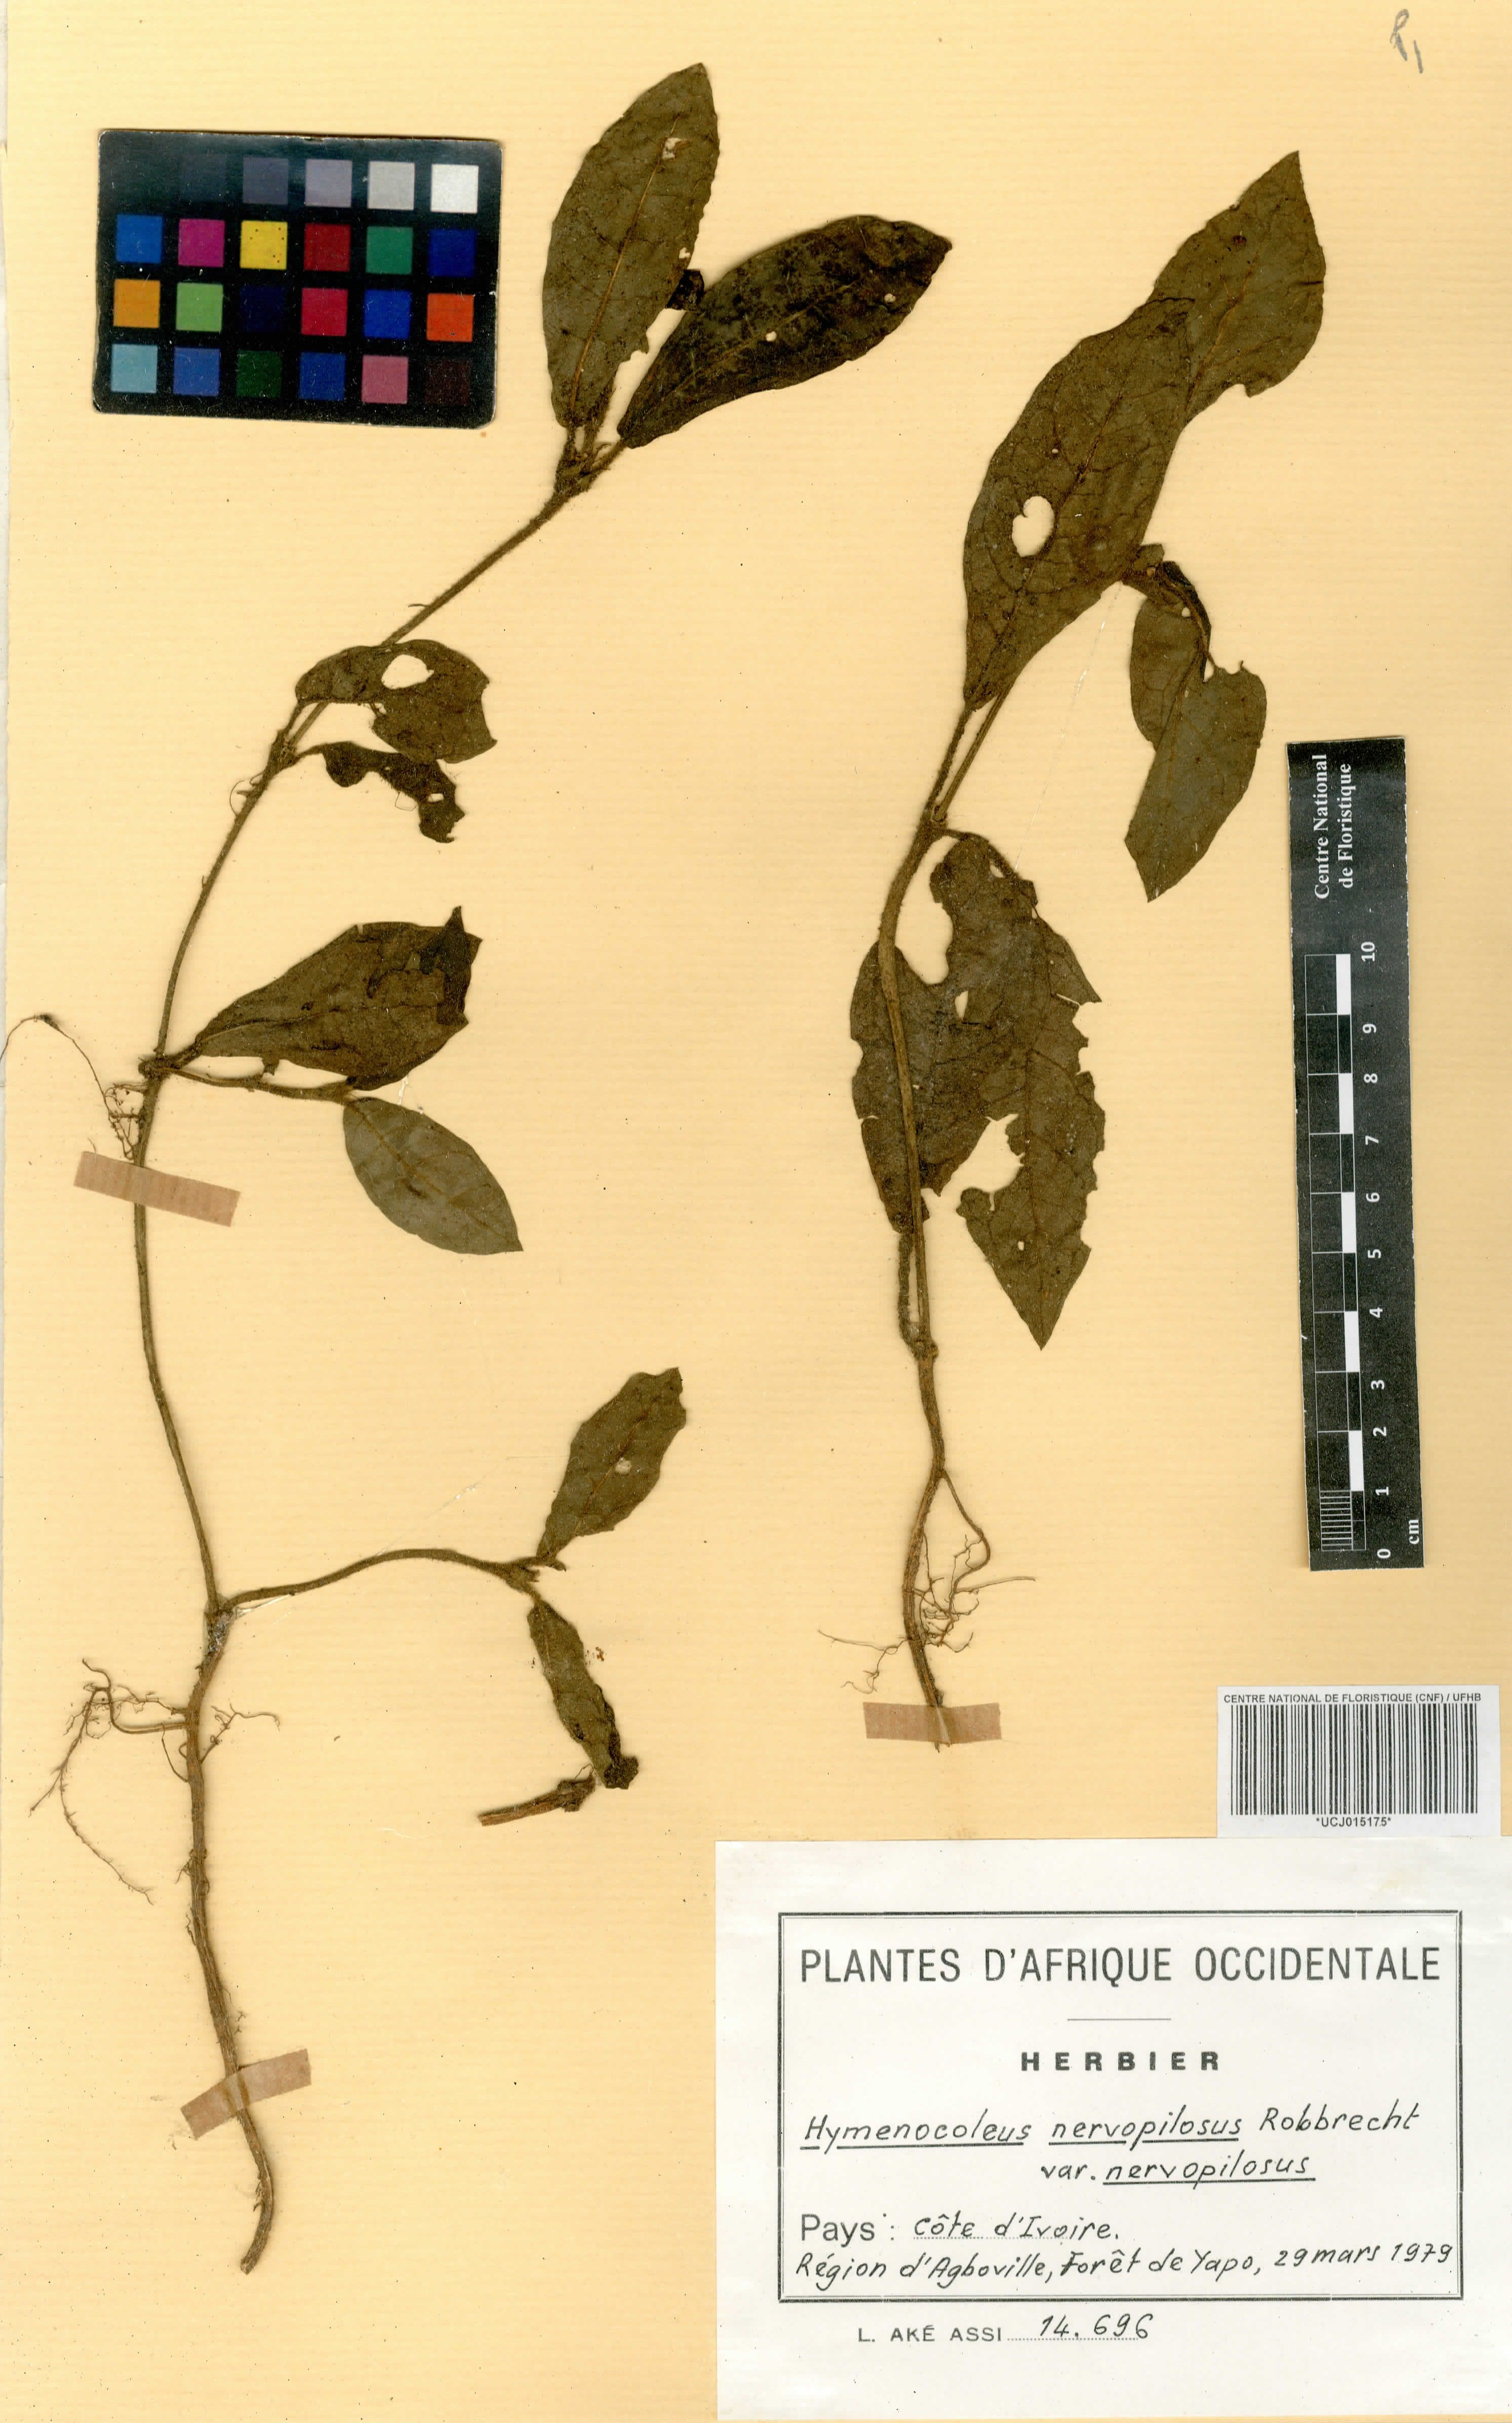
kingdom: Plantae
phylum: Tracheophyta
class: Magnoliopsida
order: Gentianales
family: Rubiaceae
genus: Hymenocoleus
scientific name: Hymenocoleus nervopilosus
